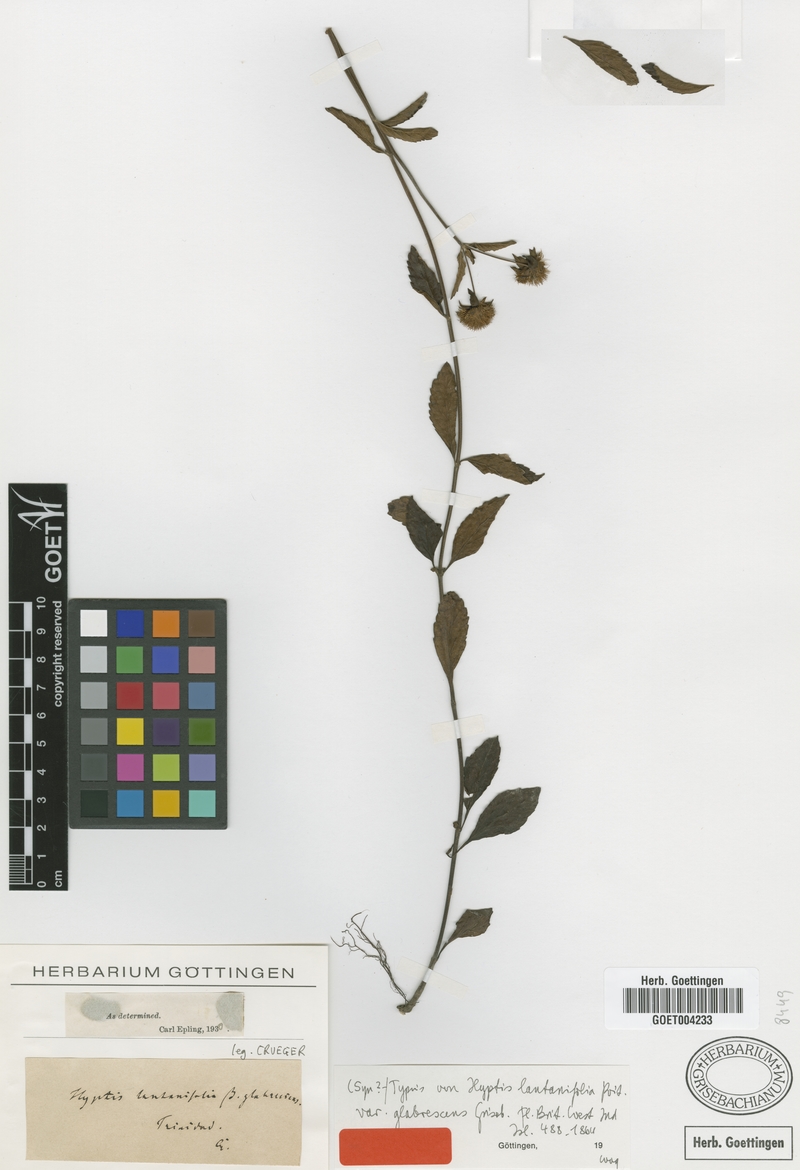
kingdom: Plantae
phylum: Tracheophyta
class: Magnoliopsida
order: Lamiales
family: Lamiaceae
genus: Hyptis
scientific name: Hyptis lantanifolia
